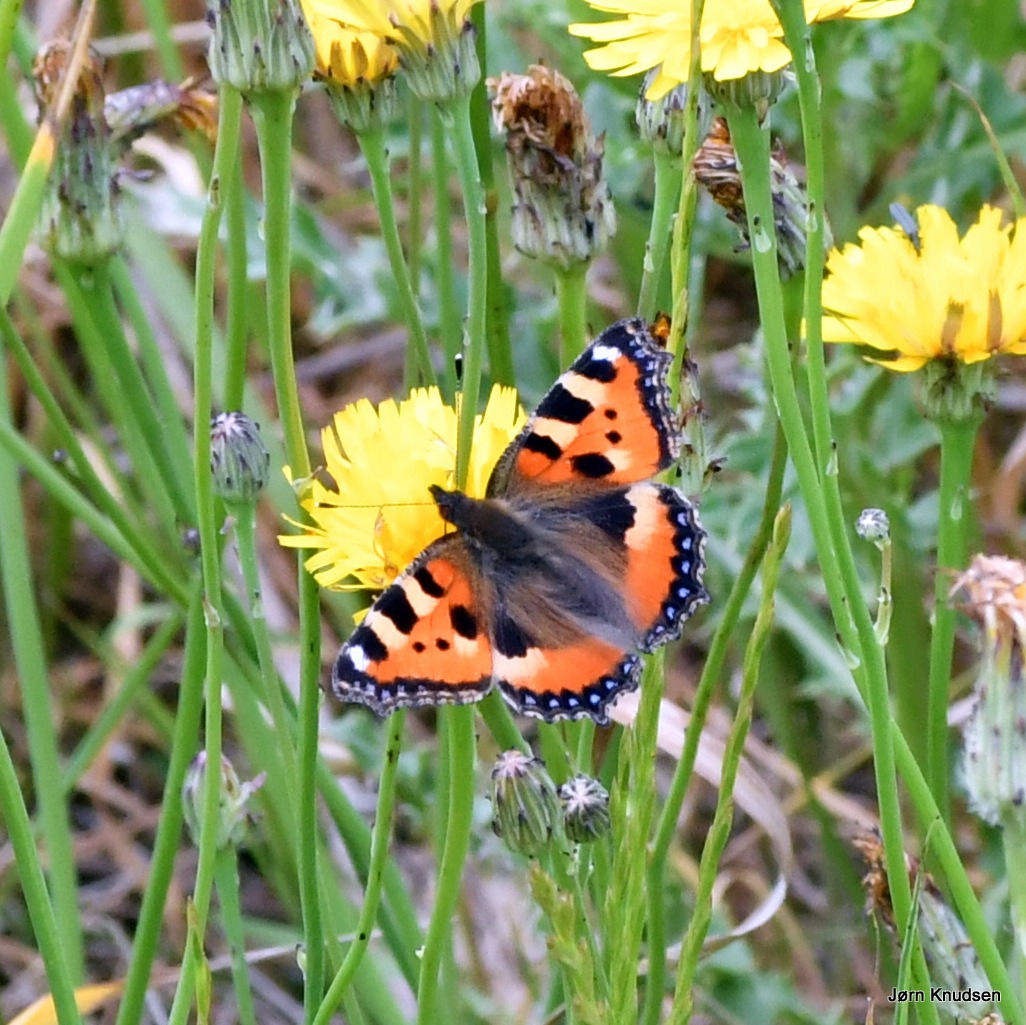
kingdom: Animalia
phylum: Arthropoda
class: Insecta
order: Lepidoptera
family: Nymphalidae
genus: Aglais
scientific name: Aglais urticae
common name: Nældens takvinge
